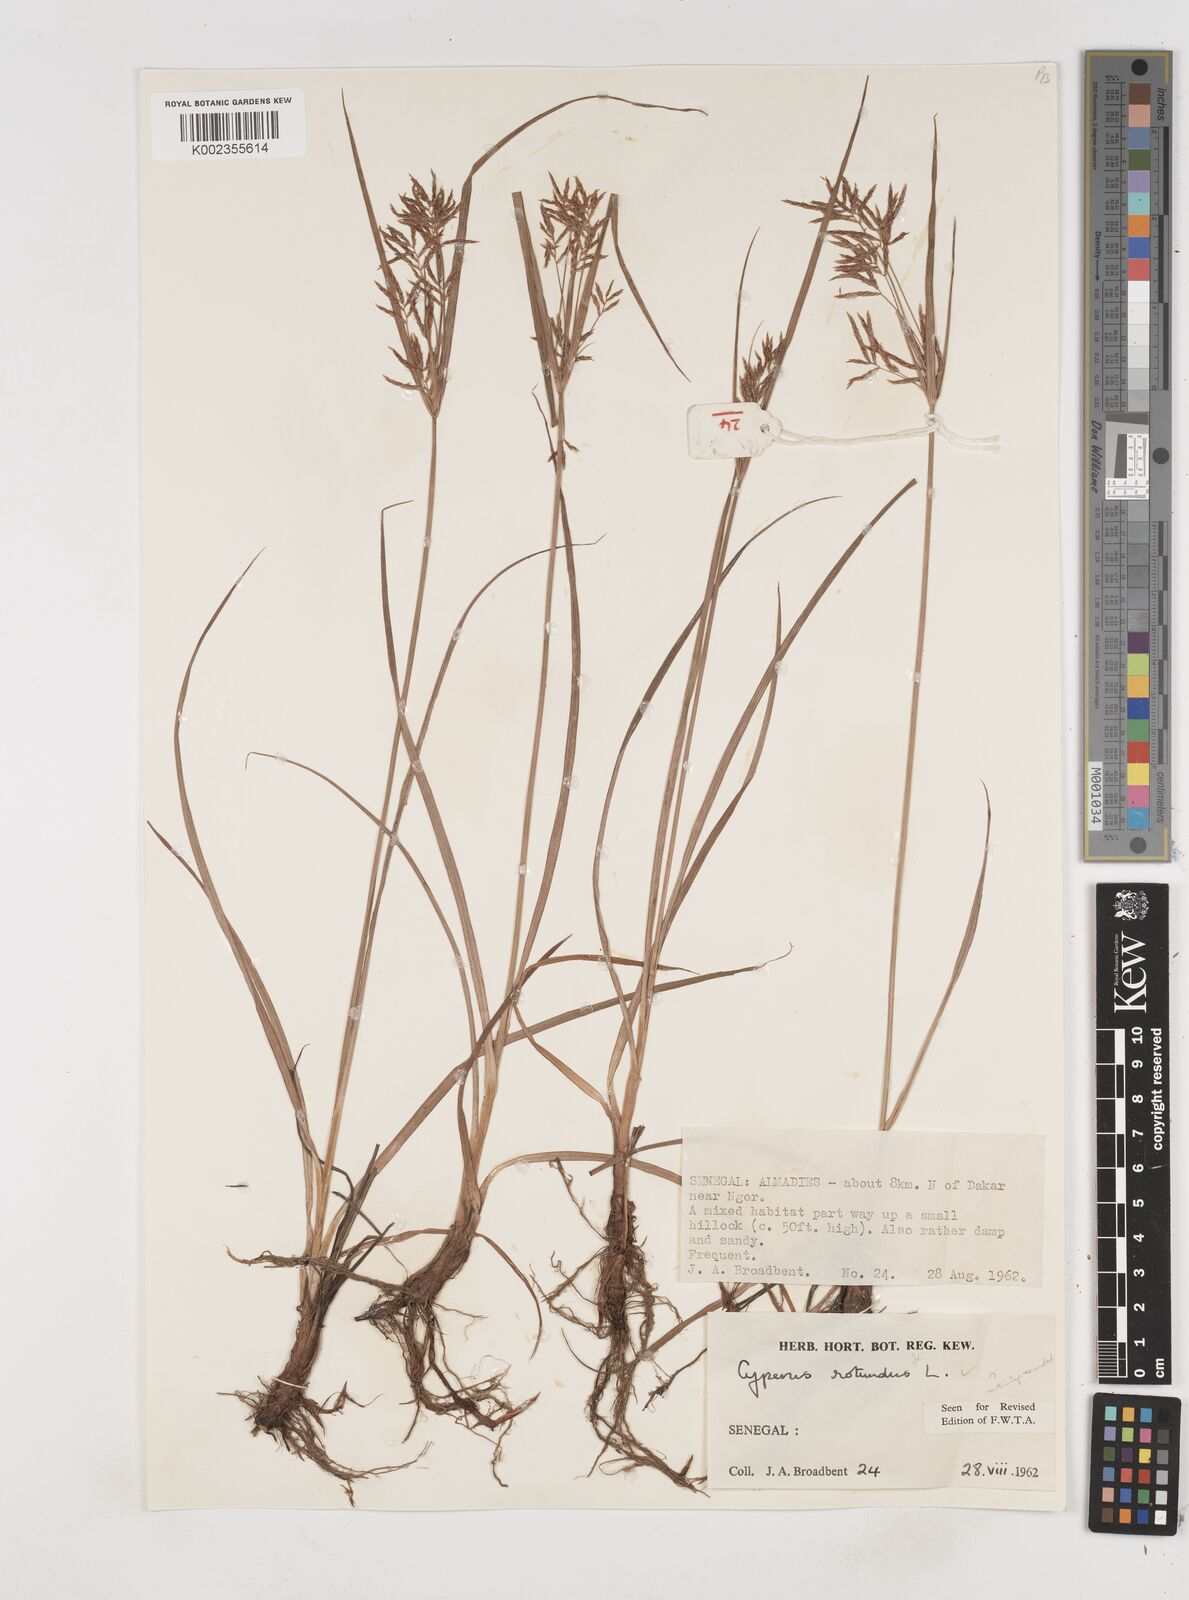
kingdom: Plantae
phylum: Tracheophyta
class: Liliopsida
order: Poales
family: Cyperaceae
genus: Cyperus
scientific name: Cyperus rotundus
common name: Nutgrass
